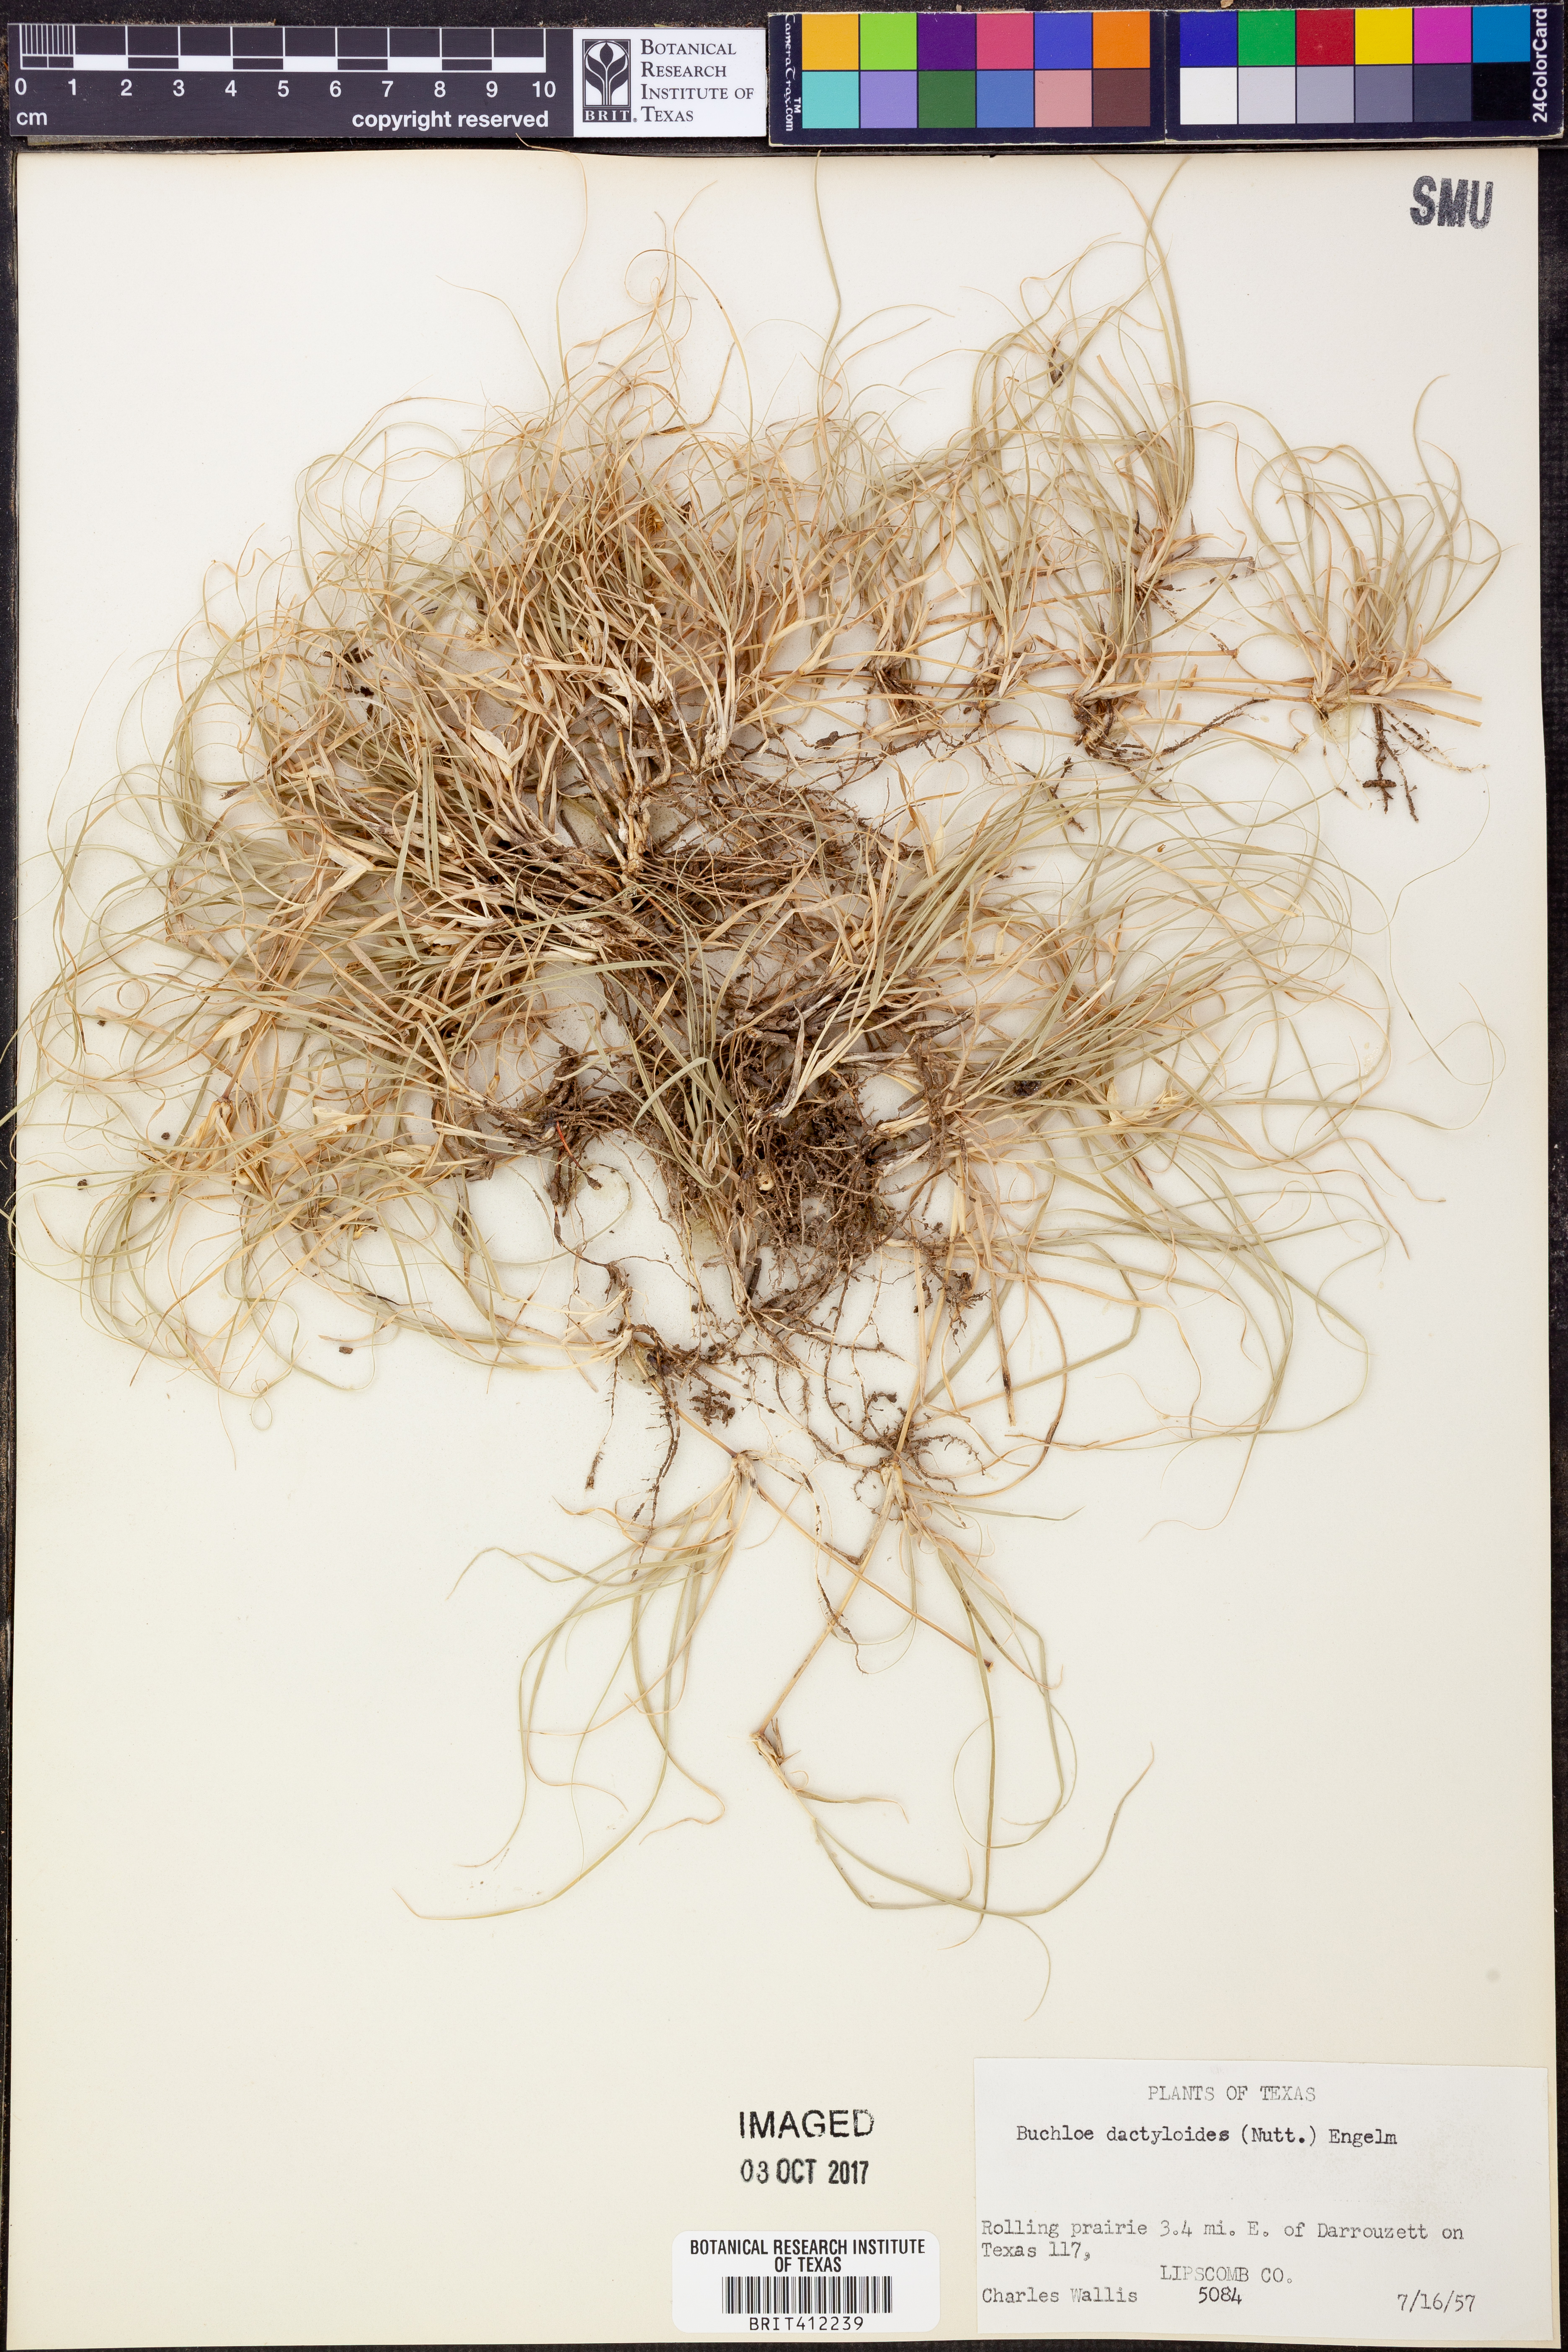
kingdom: Plantae
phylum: Tracheophyta
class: Liliopsida
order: Poales
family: Poaceae
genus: Bouteloua
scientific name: Bouteloua dactyloides
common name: Buffalo grass
